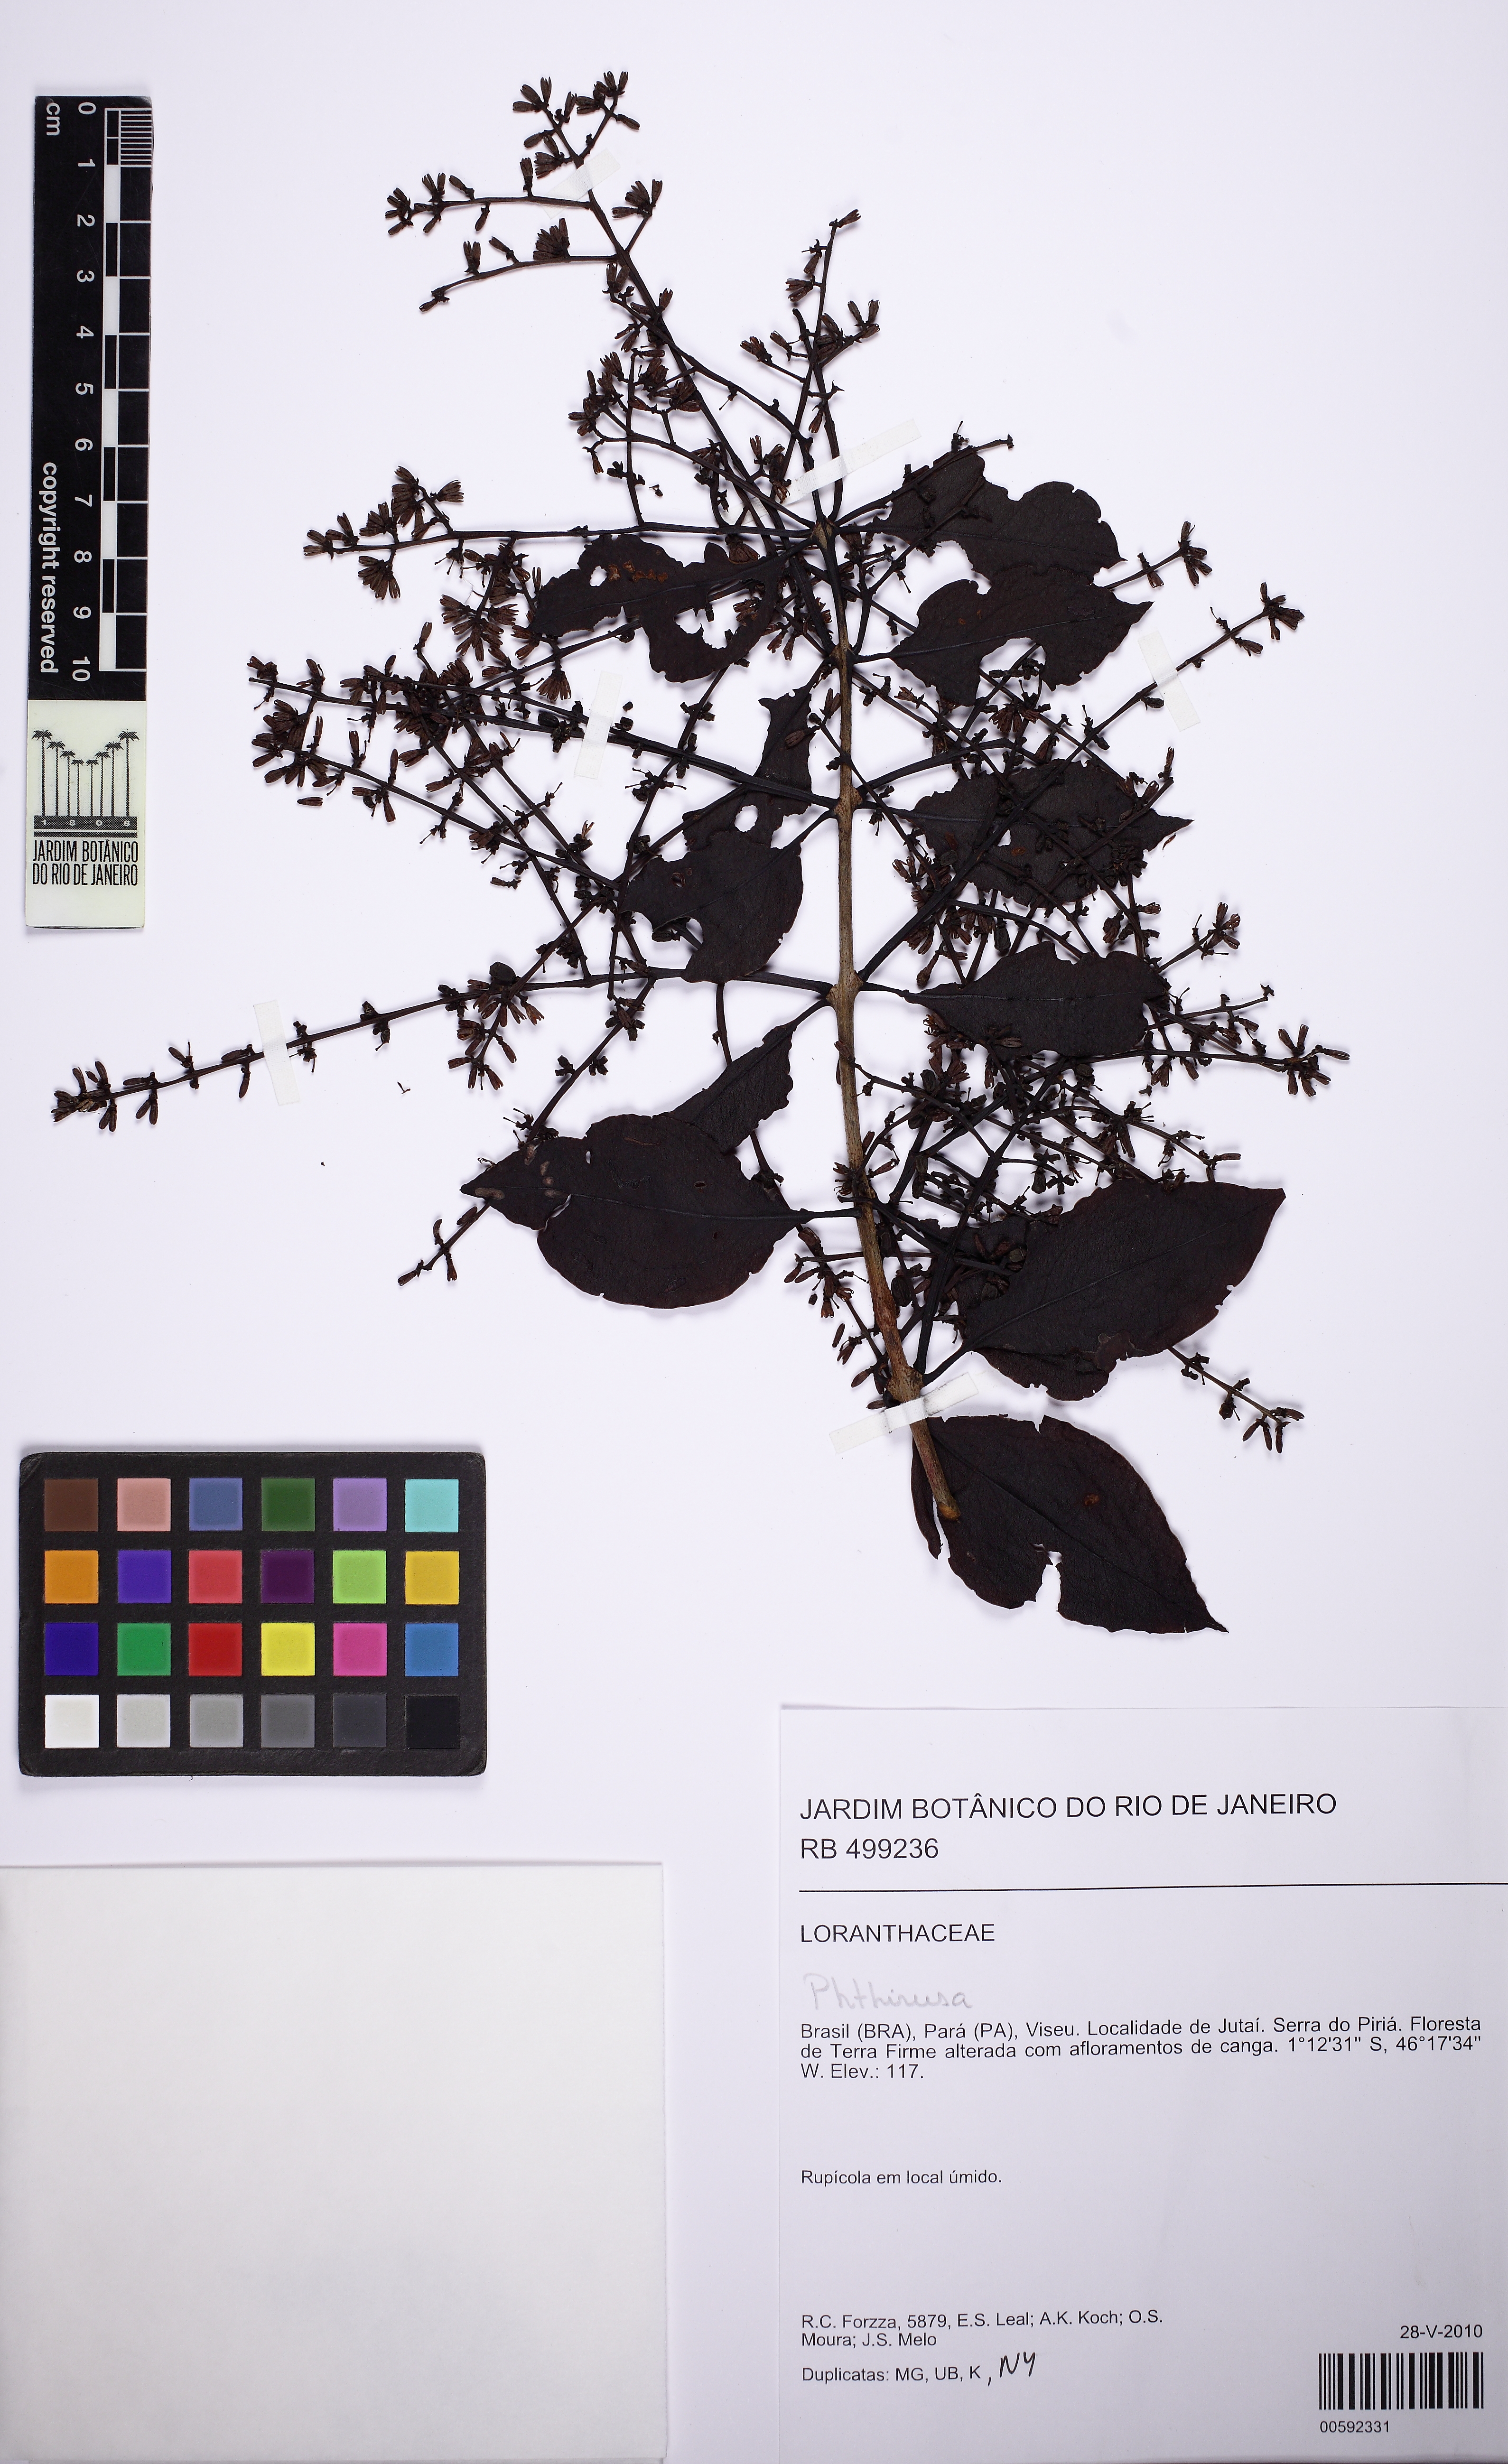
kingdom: Plantae
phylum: Tracheophyta
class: Magnoliopsida
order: Santalales
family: Loranthaceae
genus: Passovia
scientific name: Passovia pedunculata
